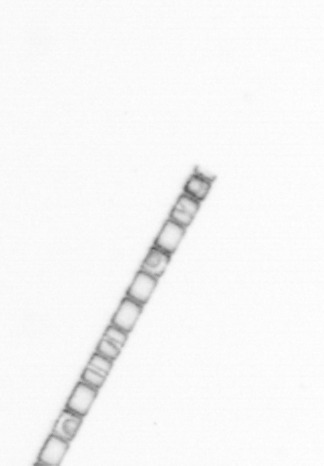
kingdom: Chromista
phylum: Ochrophyta
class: Bacillariophyceae
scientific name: Bacillariophyceae
